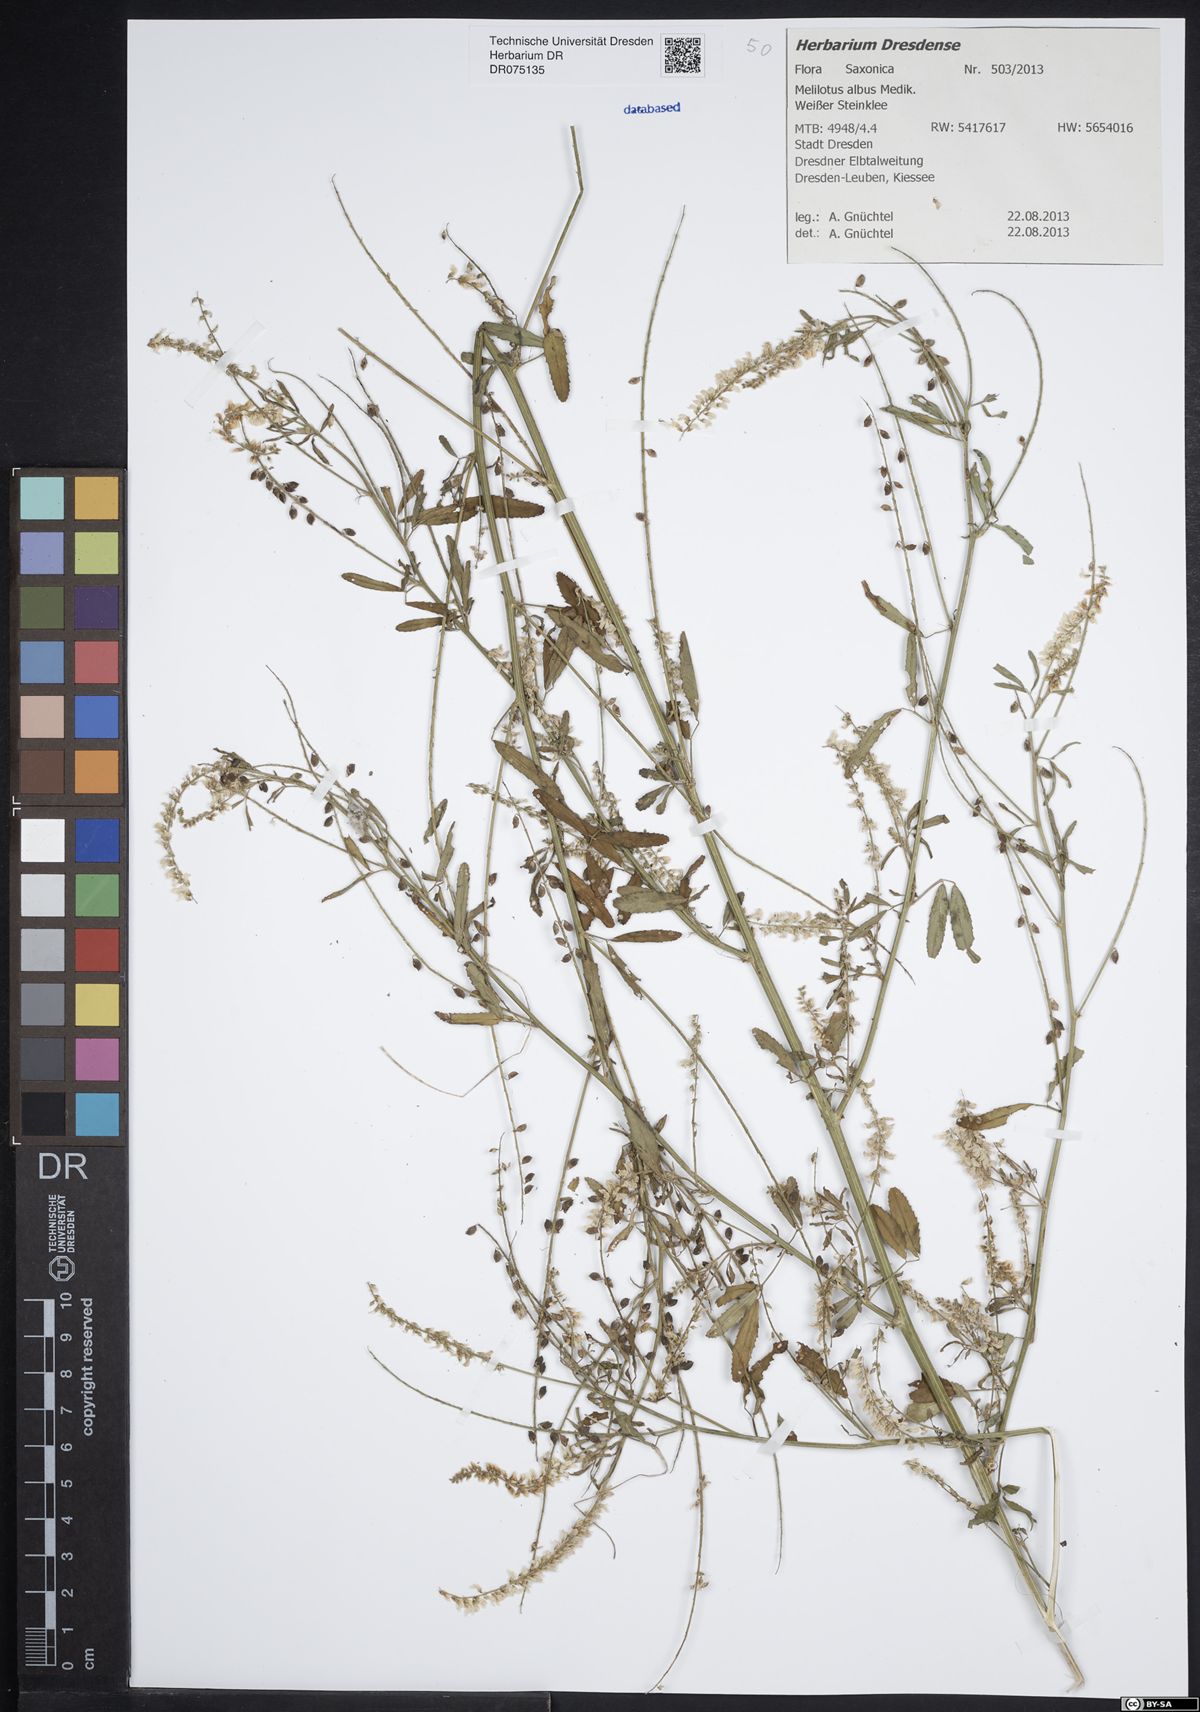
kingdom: Plantae
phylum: Tracheophyta
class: Magnoliopsida
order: Fabales
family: Fabaceae
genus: Melilotus
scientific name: Melilotus albus
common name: White melilot
